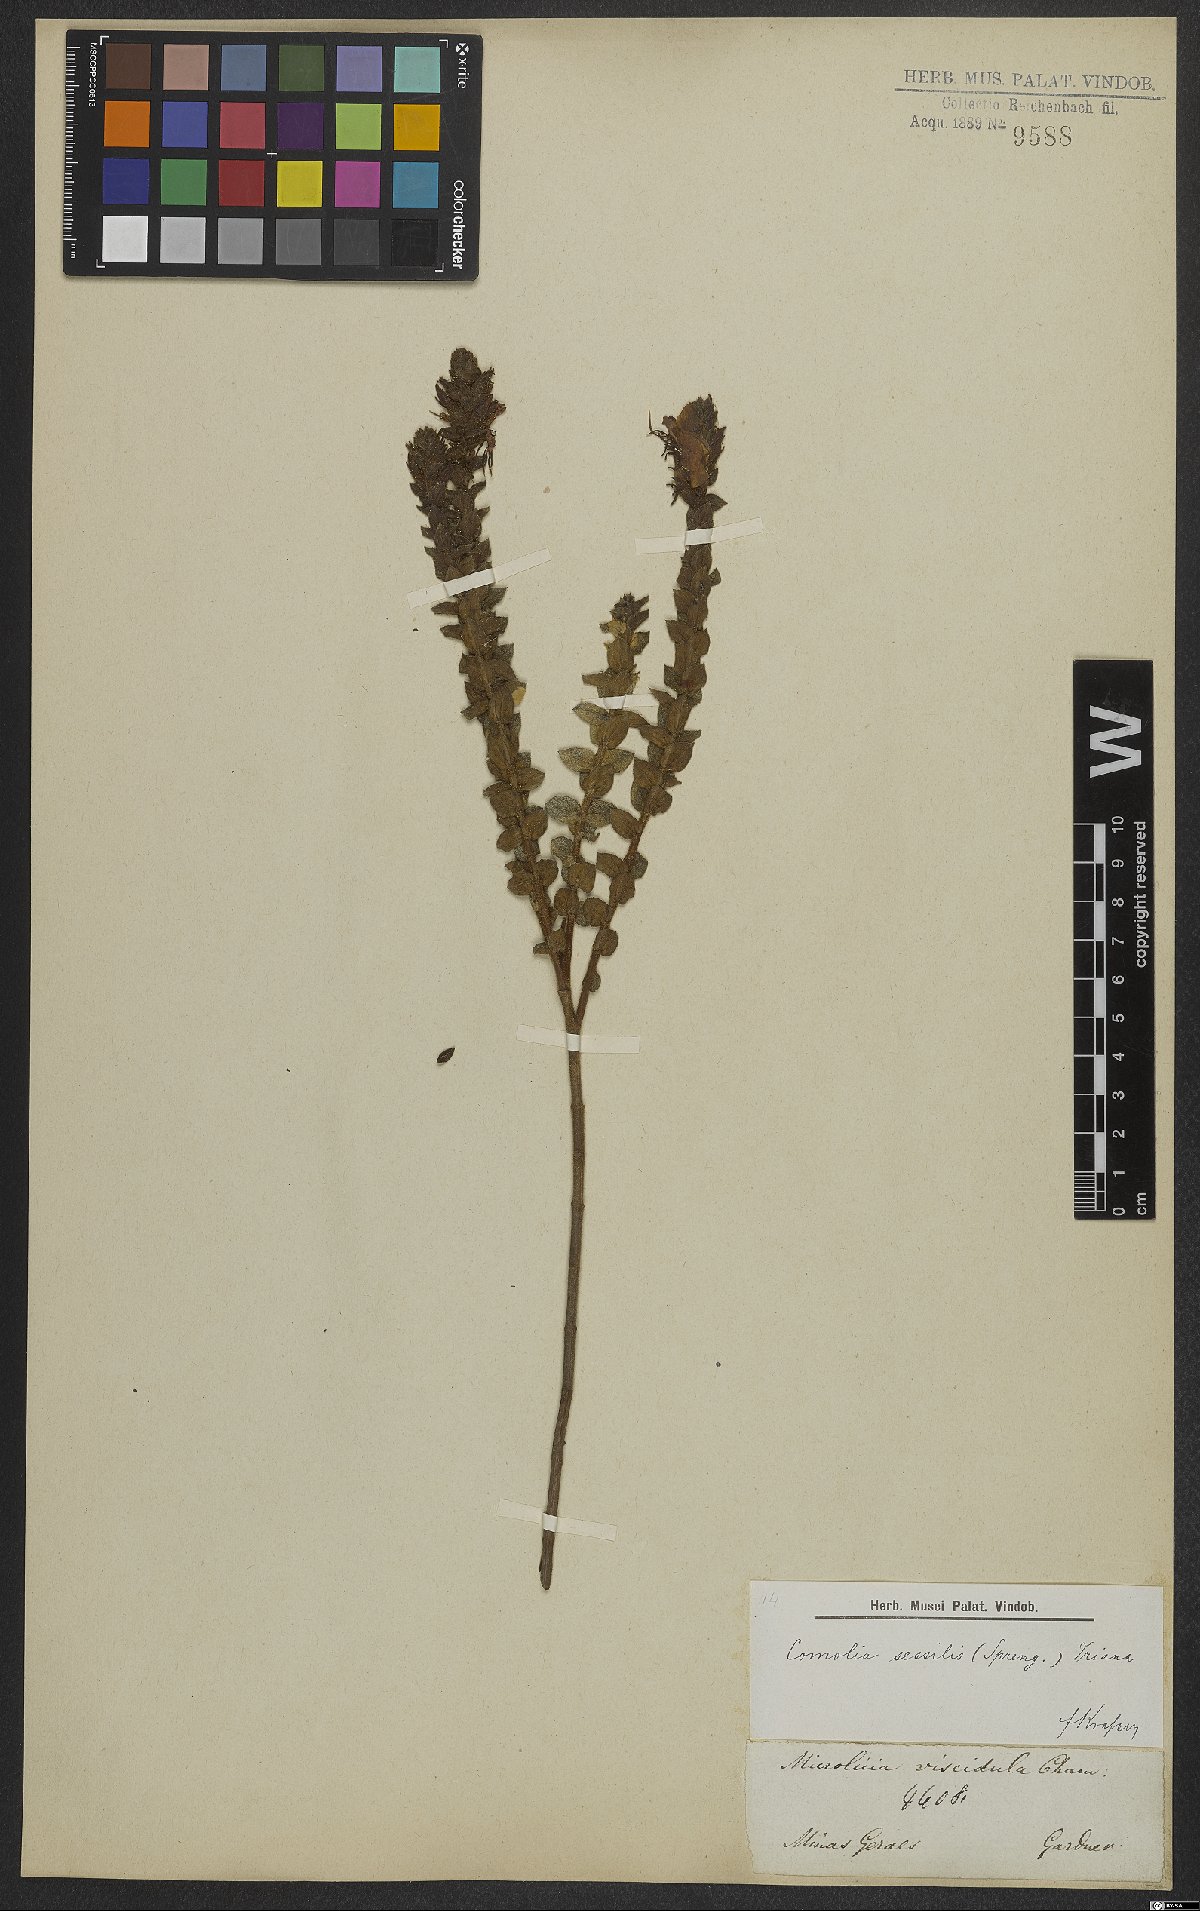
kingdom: Plantae
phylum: Tracheophyta
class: Magnoliopsida
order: Myrtales
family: Melastomataceae
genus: Fritzschia
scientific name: Fritzschia sessilis
